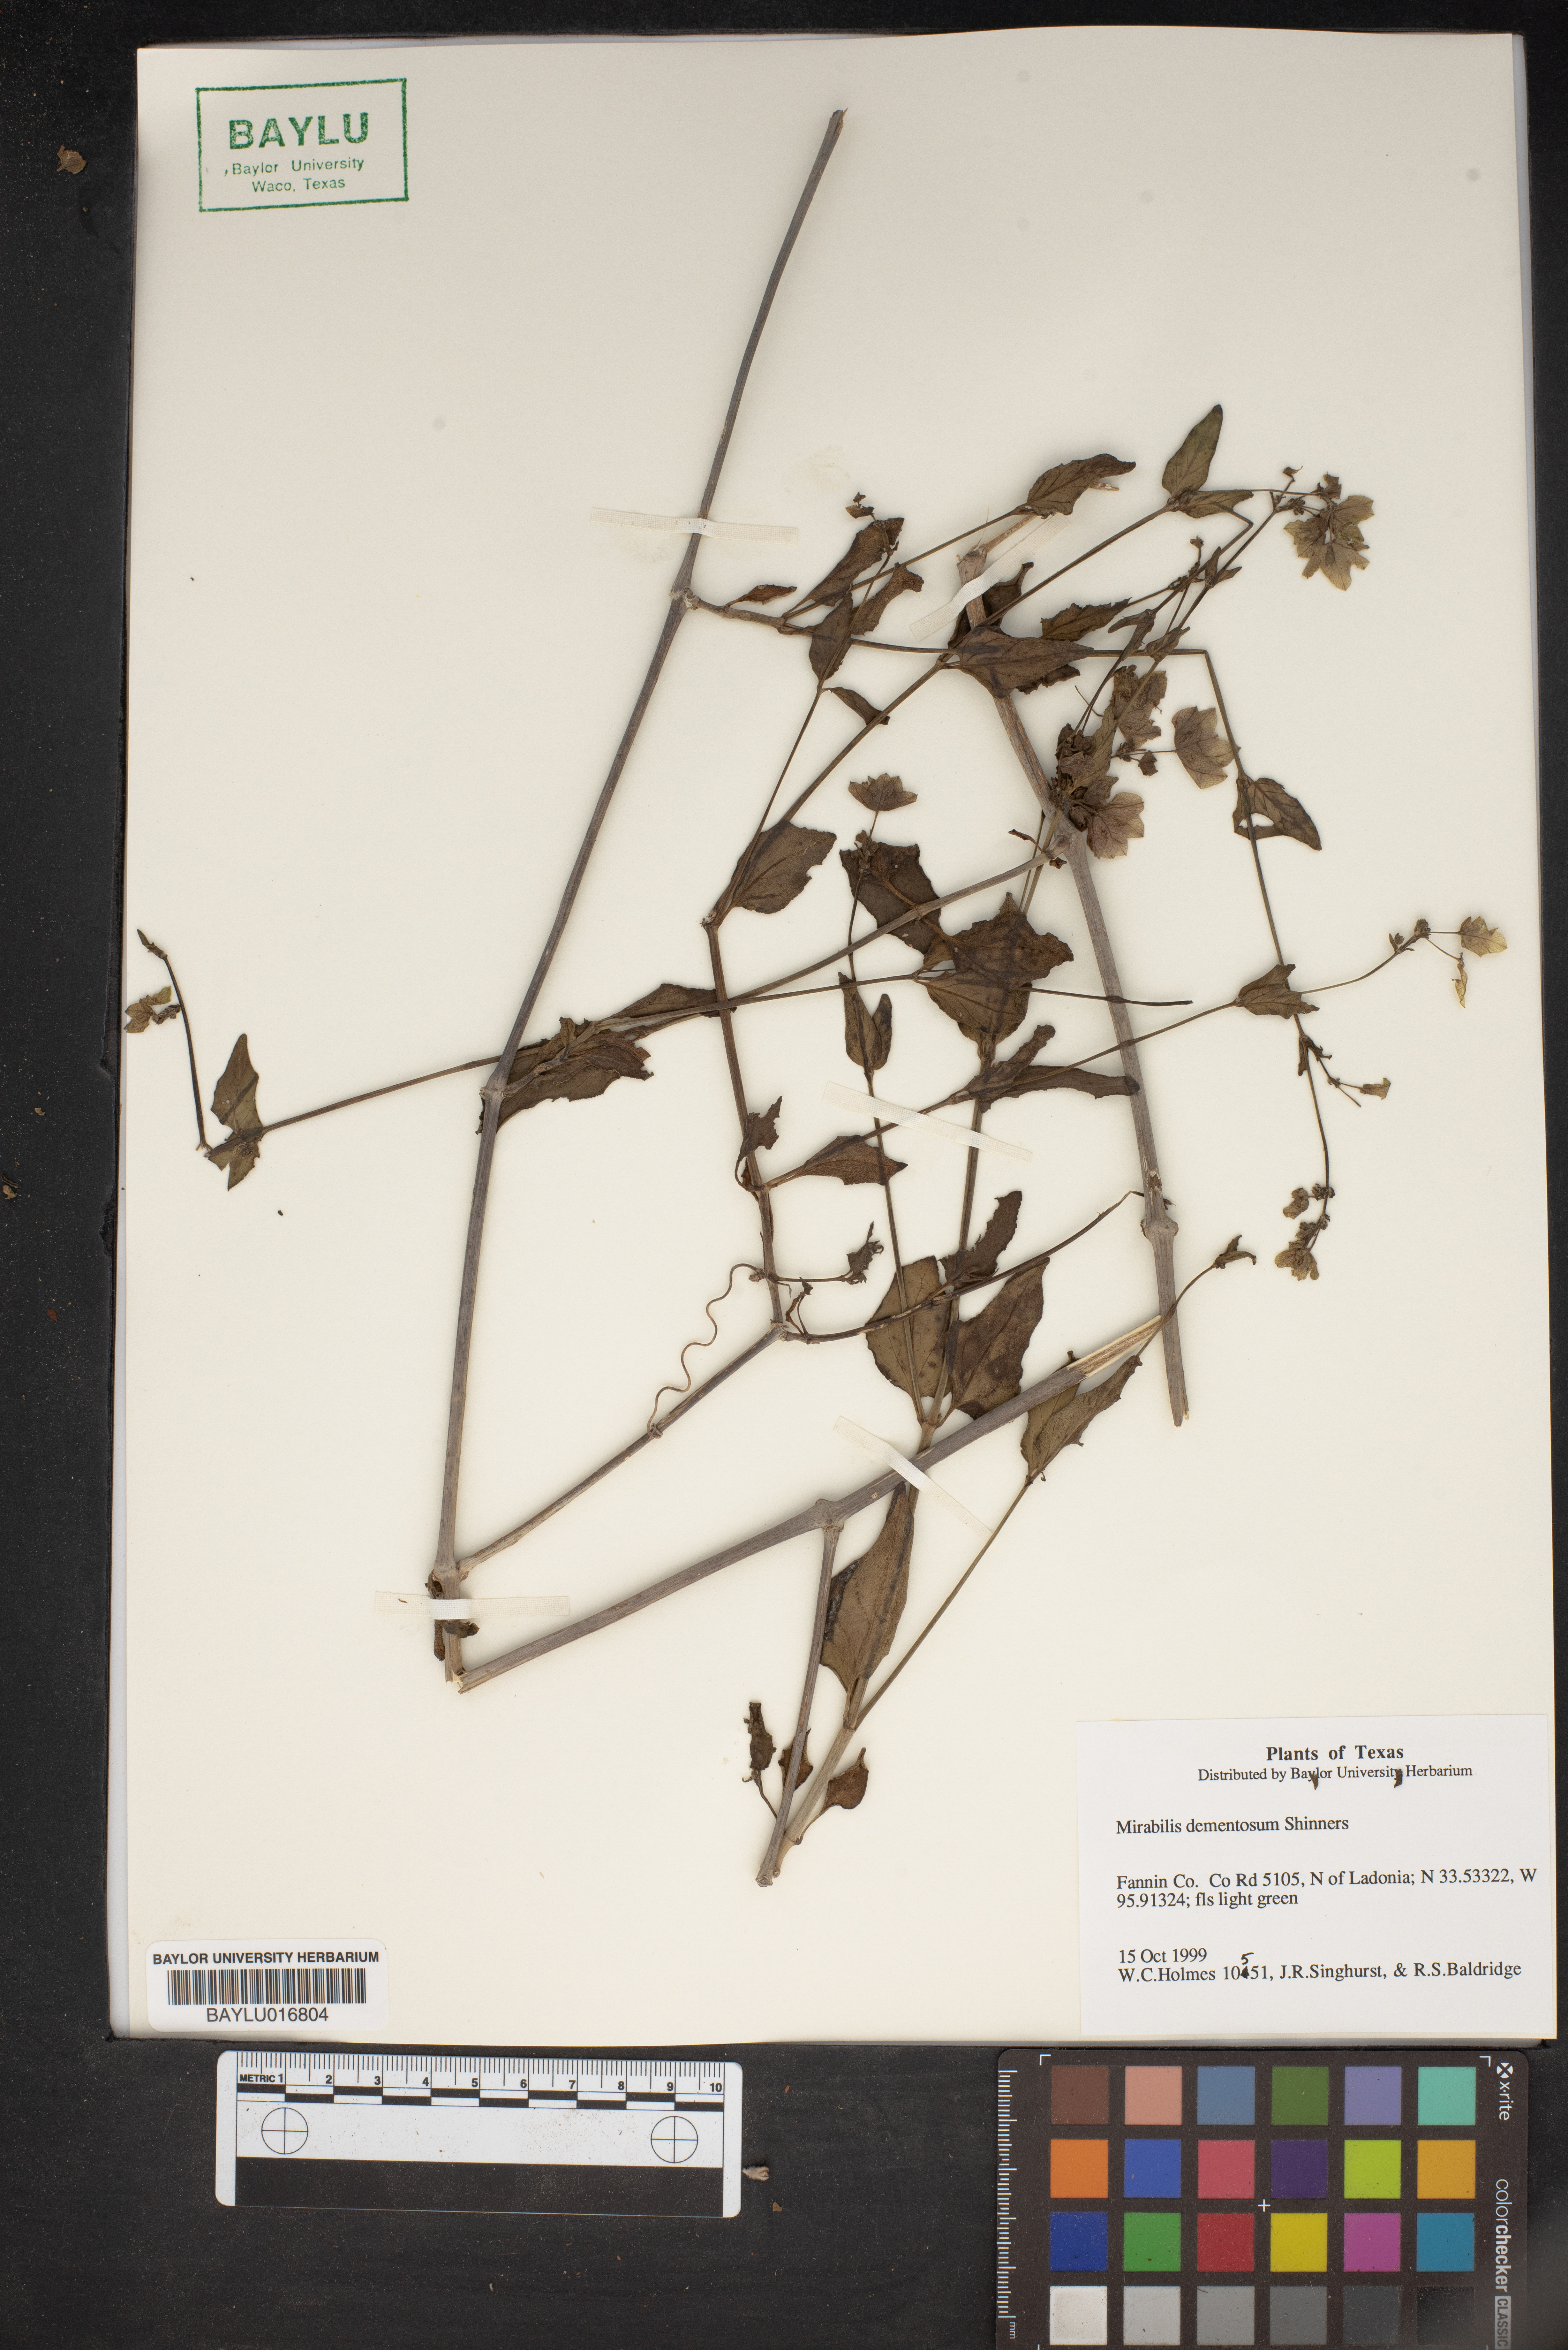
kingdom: Plantae
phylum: Tracheophyta
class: Magnoliopsida
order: Caryophyllales
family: Nyctaginaceae
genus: Mirabilis
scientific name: Mirabilis albida
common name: Hairy four-o'clock
